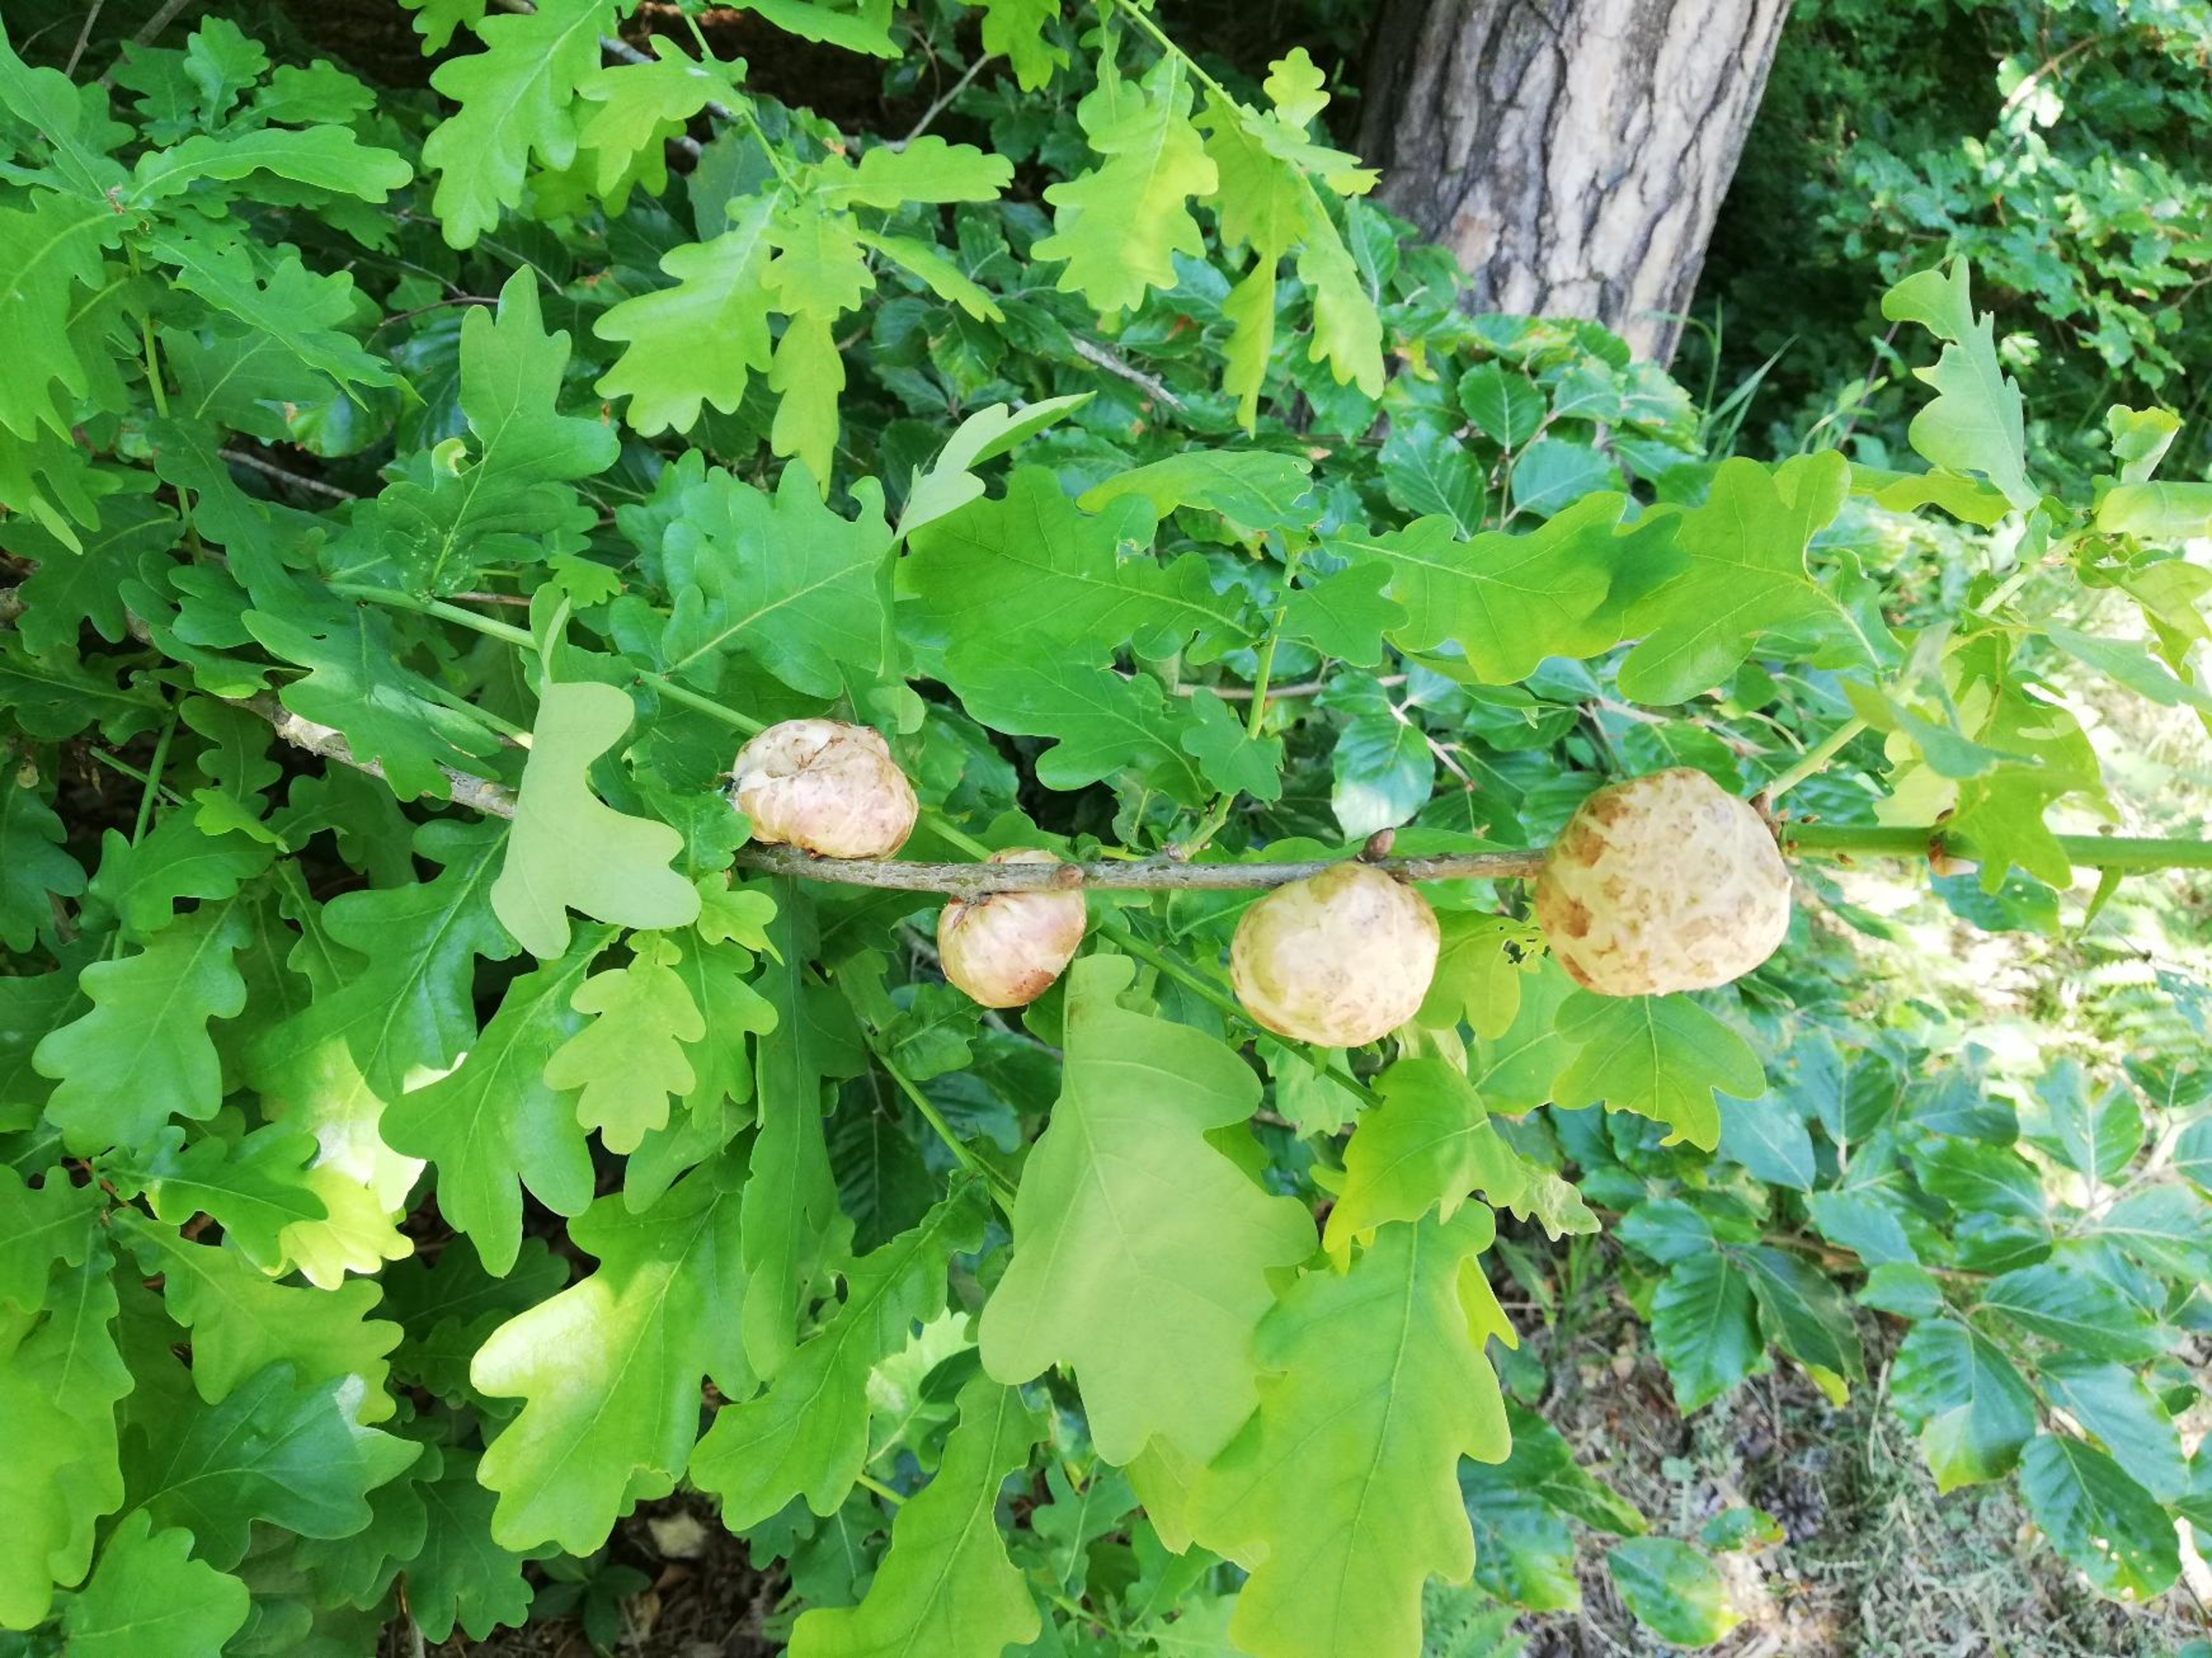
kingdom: Animalia
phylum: Arthropoda
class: Insecta
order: Hymenoptera
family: Cynipidae
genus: Biorhiza
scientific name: Biorhiza pallida
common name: Ege-kartoffelgalhveps
